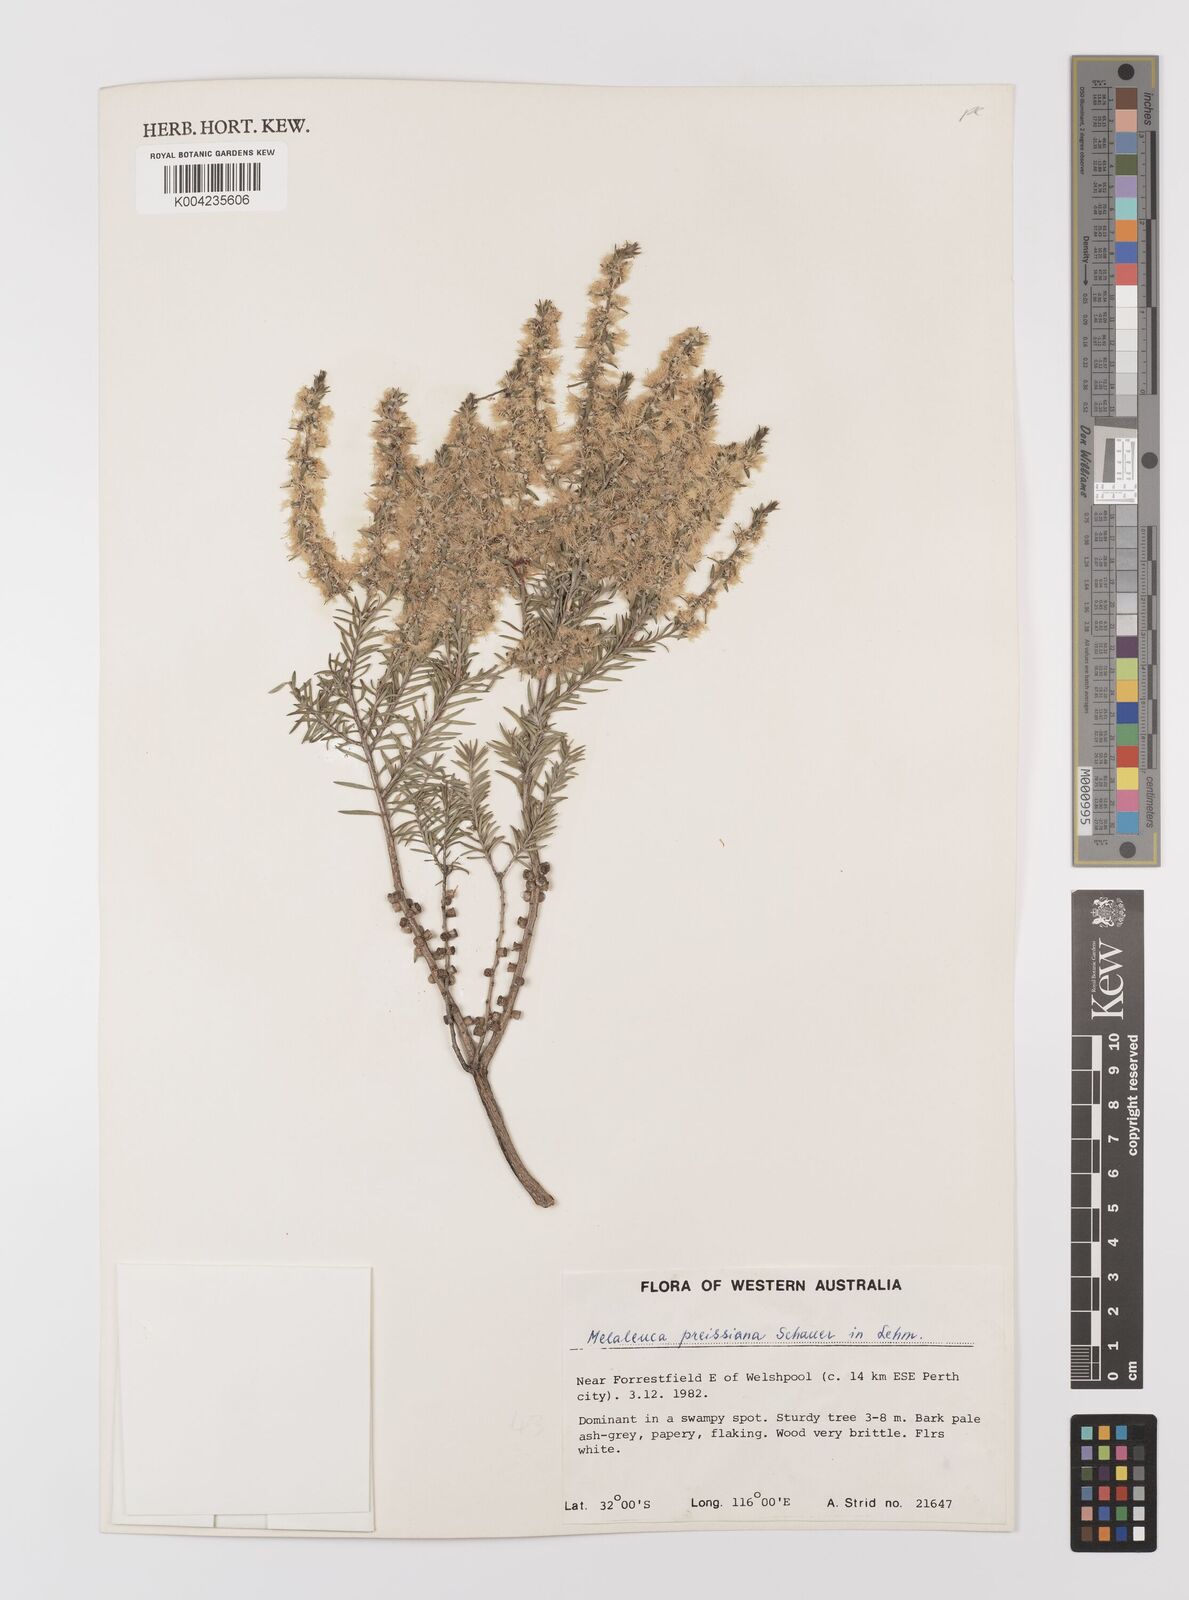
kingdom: Plantae
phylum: Tracheophyta
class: Magnoliopsida
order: Myrtales
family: Myrtaceae
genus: Melaleuca
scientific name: Melaleuca preissiana
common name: Preiss's paperbark
